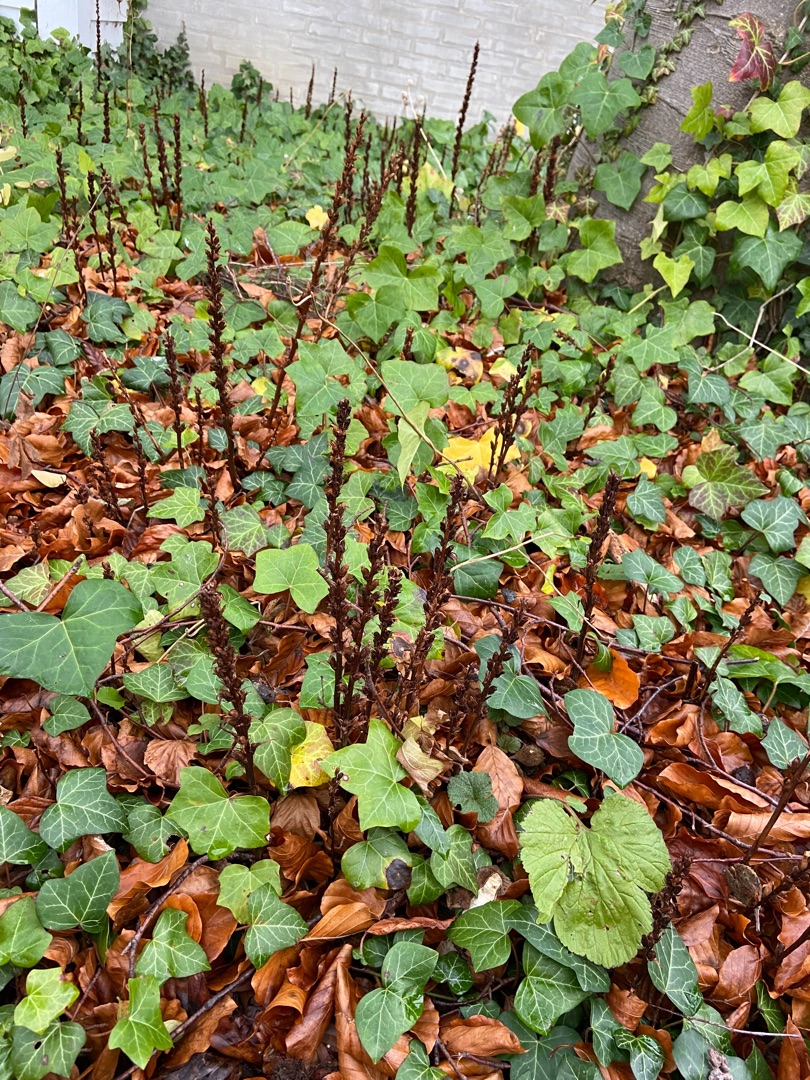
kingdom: Plantae
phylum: Tracheophyta
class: Magnoliopsida
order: Lamiales
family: Orobanchaceae
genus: Orobanche
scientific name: Orobanche hederae
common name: Vedbend-gyvelkvæler
